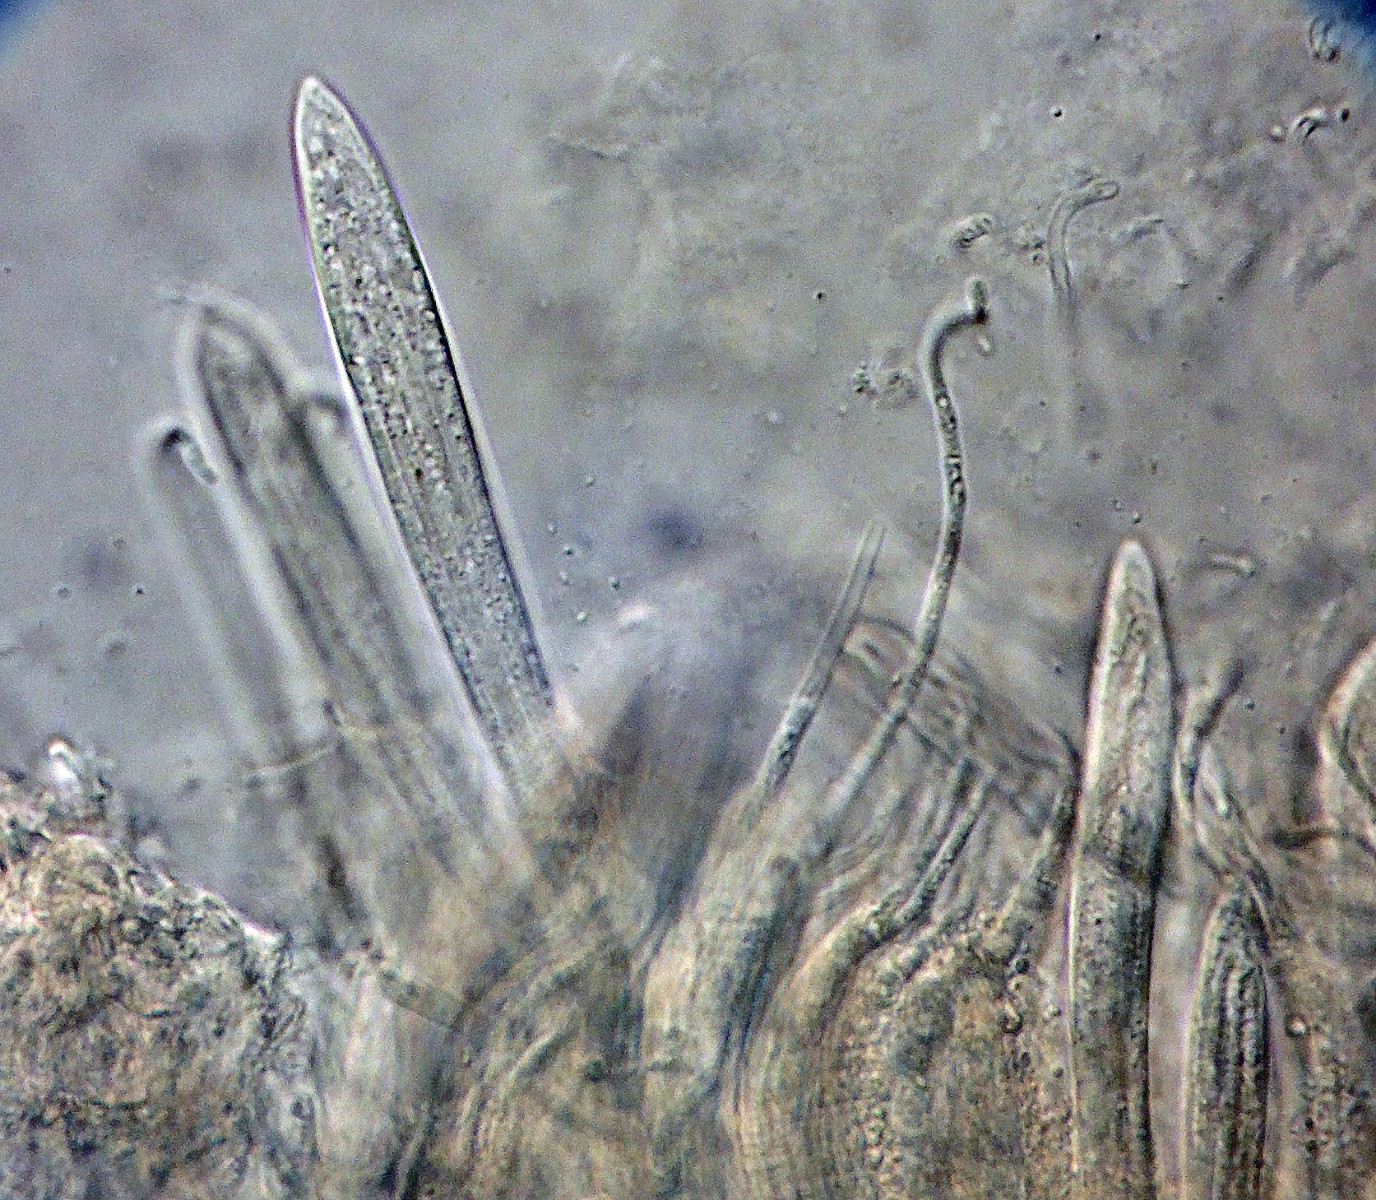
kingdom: Fungi
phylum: Ascomycota
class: Leotiomycetes
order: Rhytismatales
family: Rhytismataceae
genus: Sporomega
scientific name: Sporomega degenerans
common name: bølle-sprækkeskive
